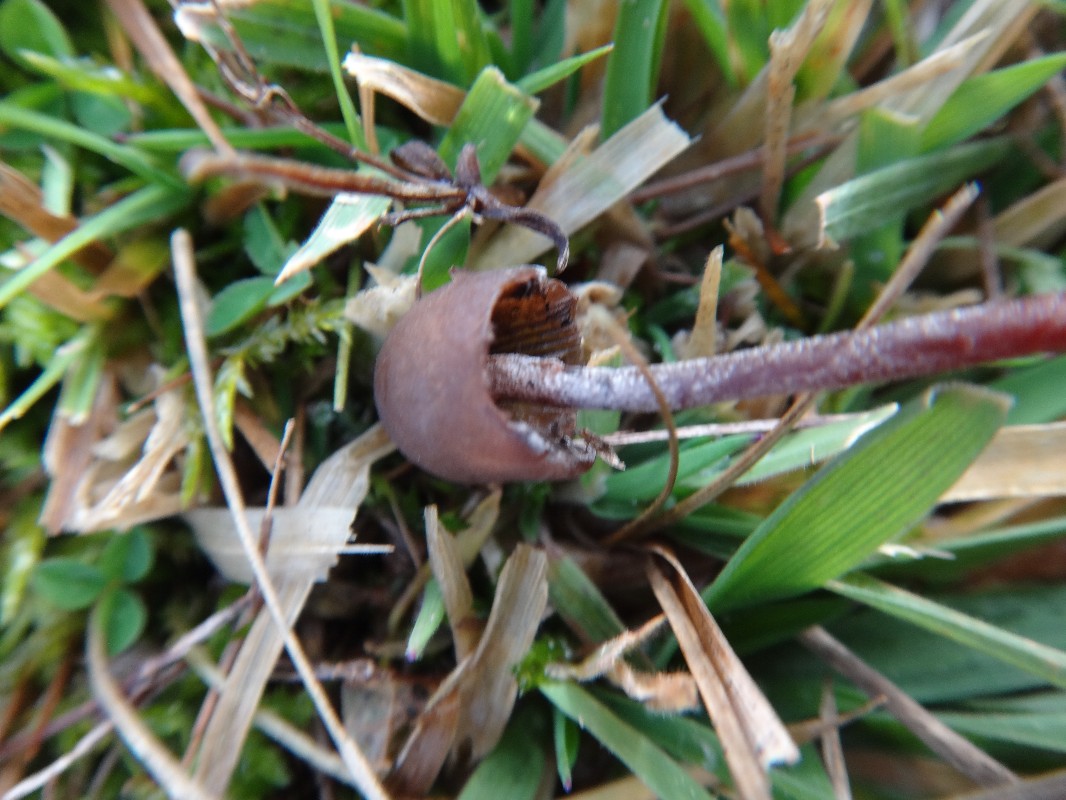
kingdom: Fungi
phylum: Basidiomycota
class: Agaricomycetes
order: Agaricales
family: Bolbitiaceae
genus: Panaeolus
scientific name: Panaeolus acuminatus
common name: høj glanshat
